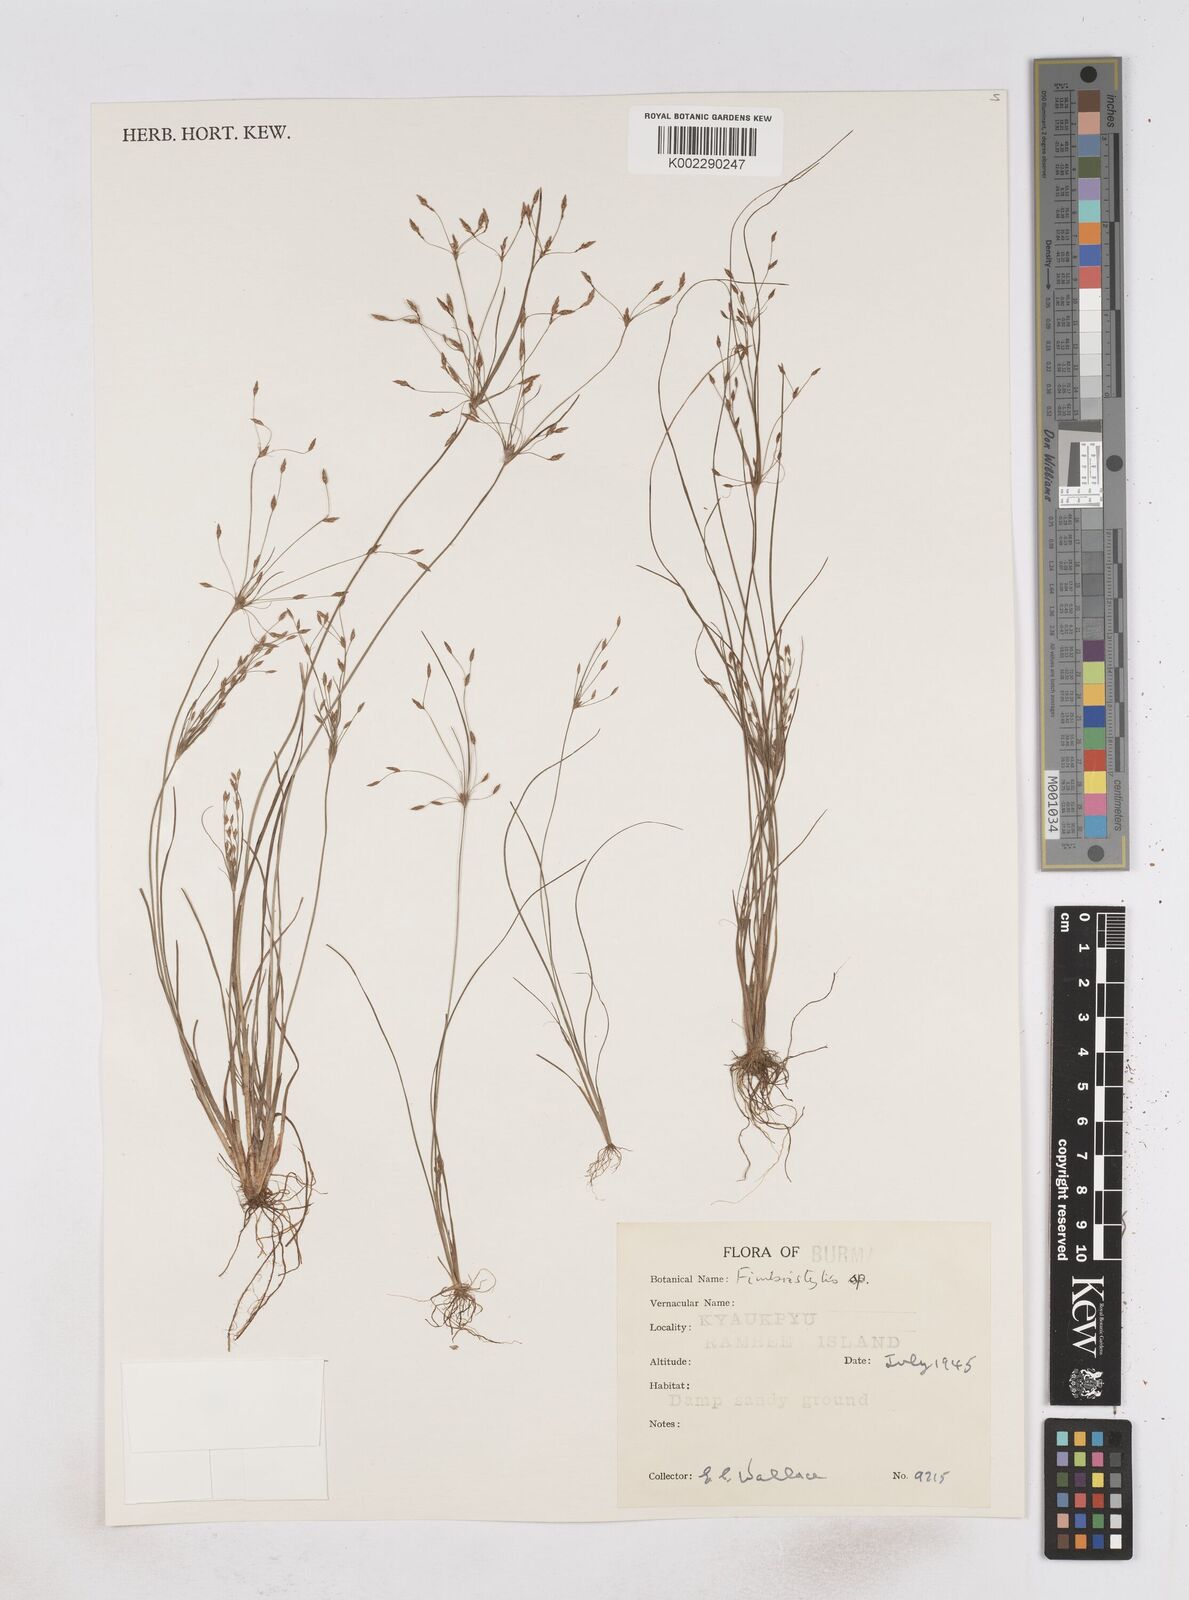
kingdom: Plantae
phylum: Tracheophyta
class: Liliopsida
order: Poales
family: Cyperaceae
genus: Fimbristylis
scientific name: Fimbristylis
